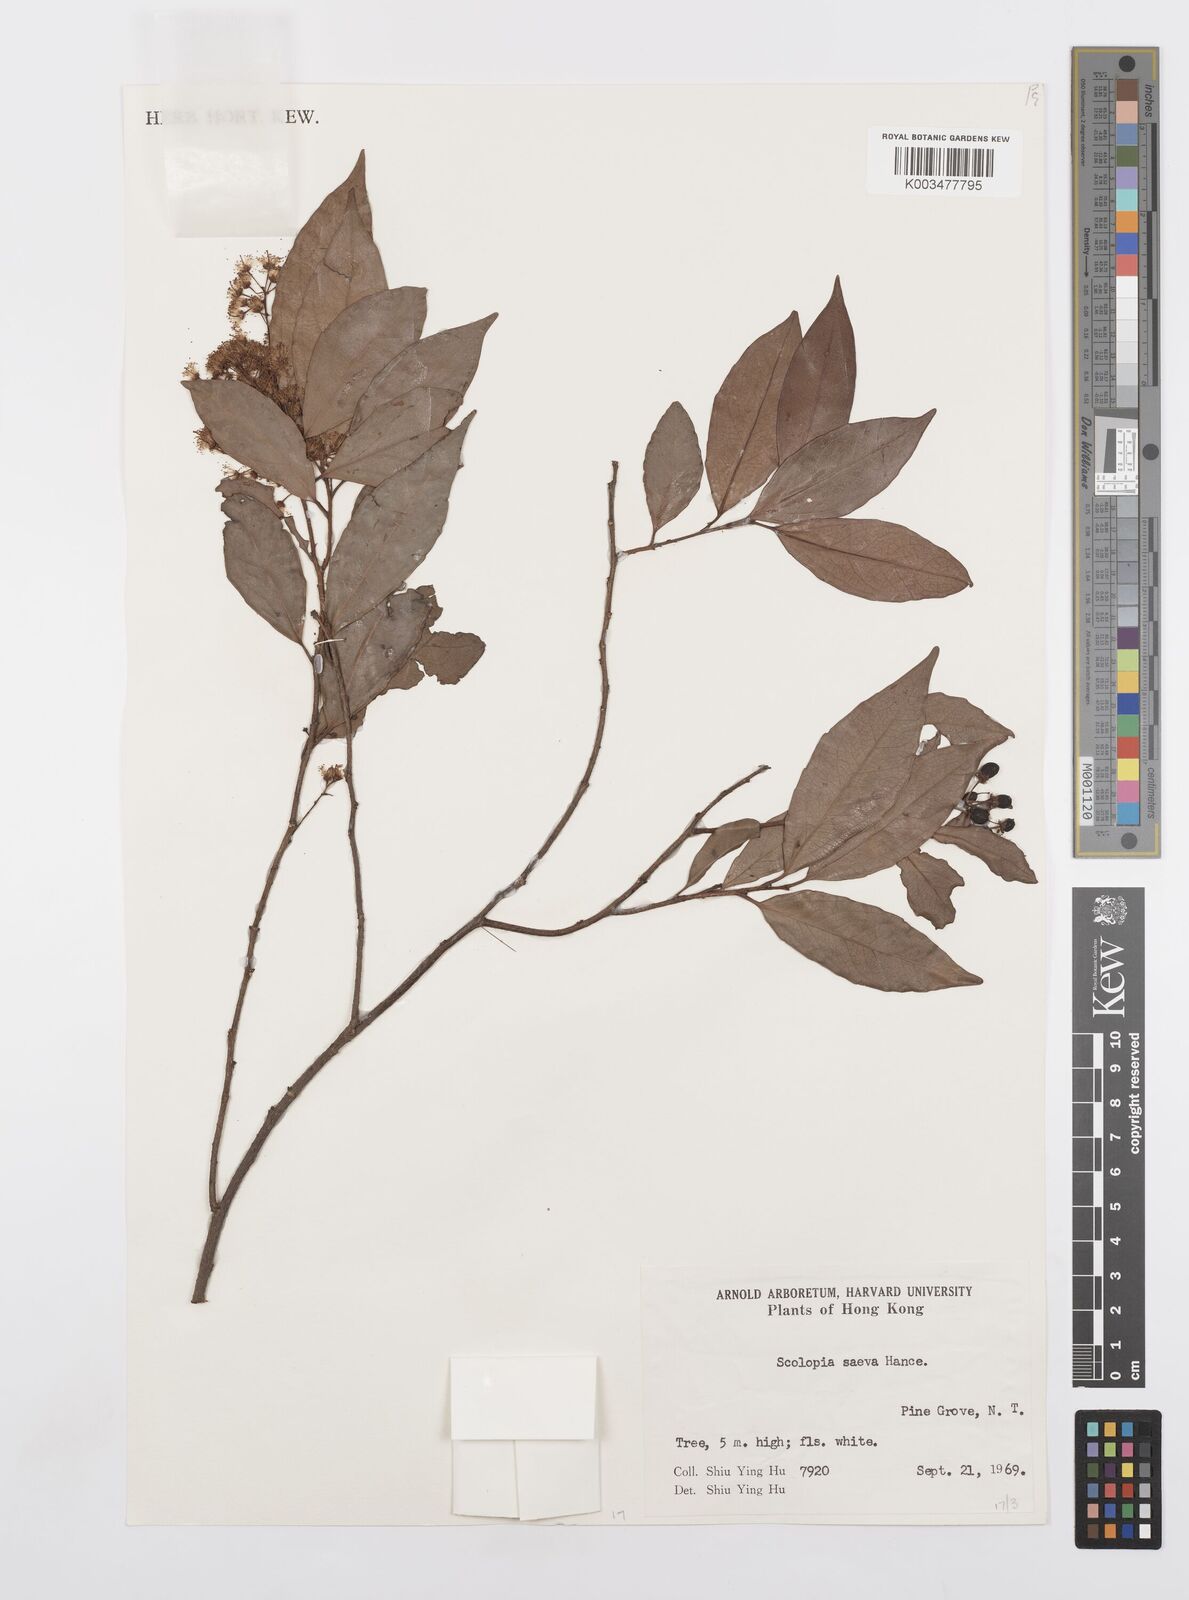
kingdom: Plantae
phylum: Tracheophyta
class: Magnoliopsida
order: Malpighiales
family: Salicaceae
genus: Scolopia
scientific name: Scolopia saeva
